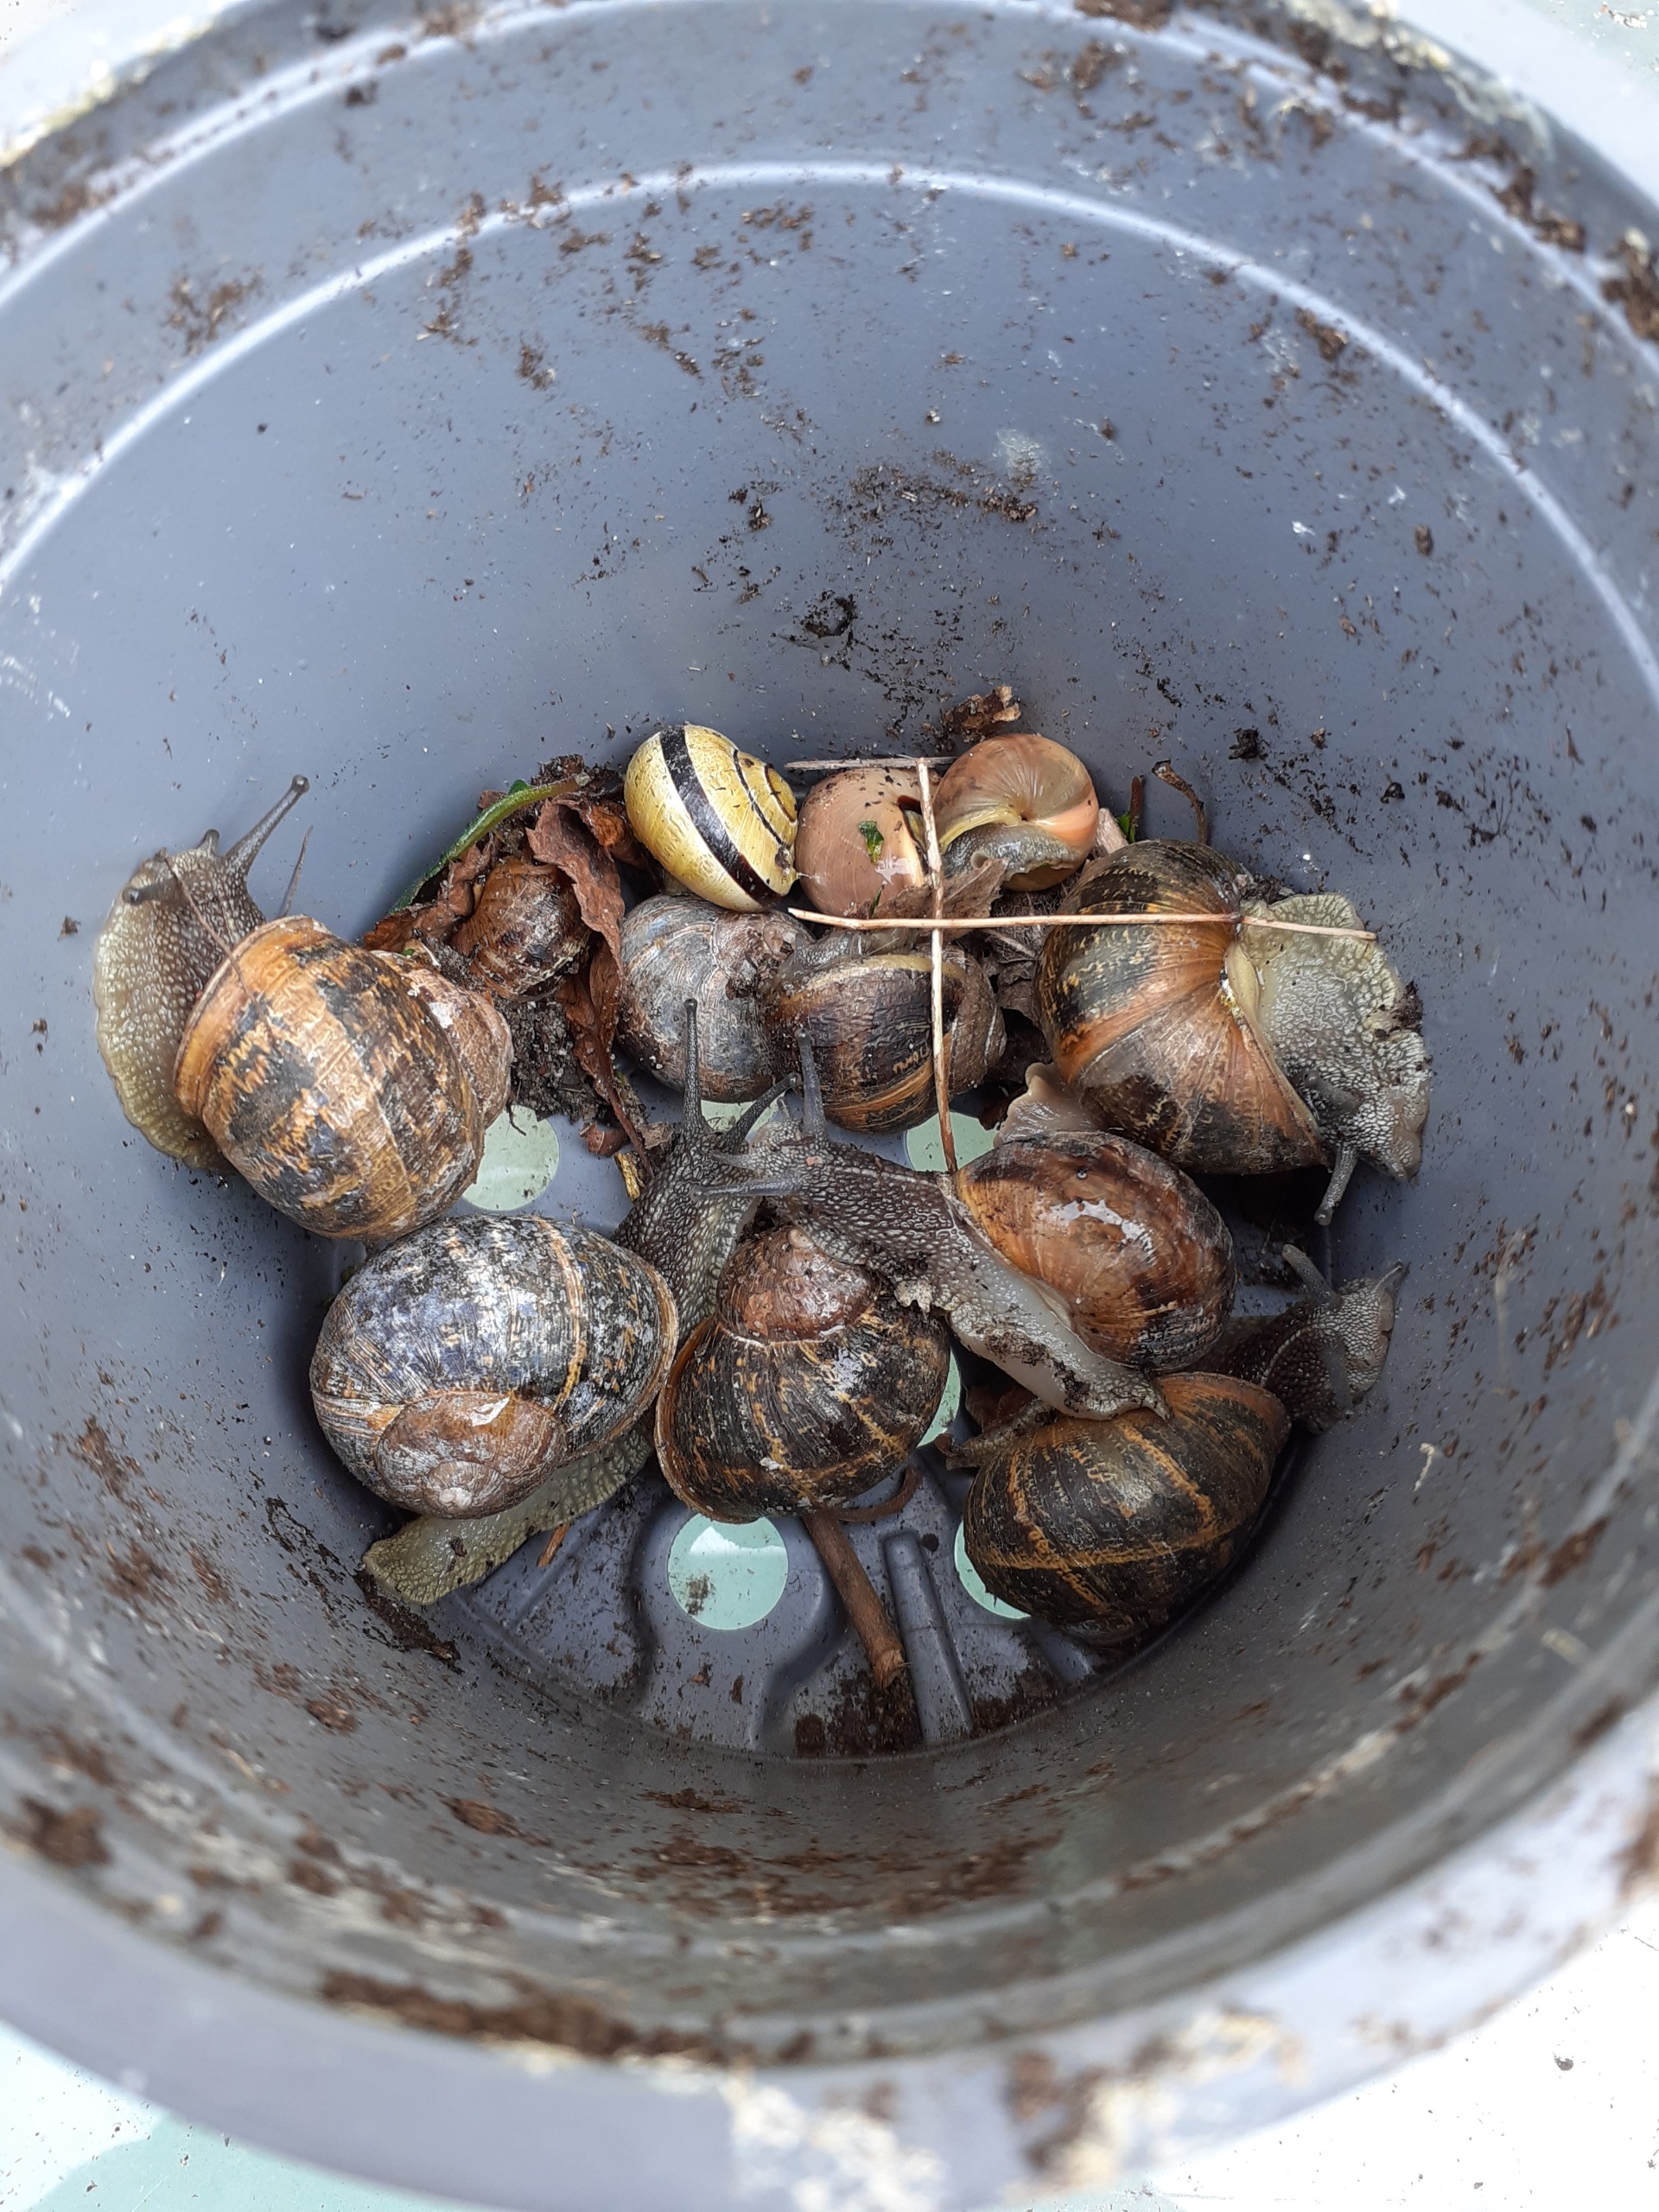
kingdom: Animalia
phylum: Mollusca
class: Gastropoda
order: Stylommatophora
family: Helicidae
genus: Cornu
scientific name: Cornu aspersum
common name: Plettet voldsnegl
